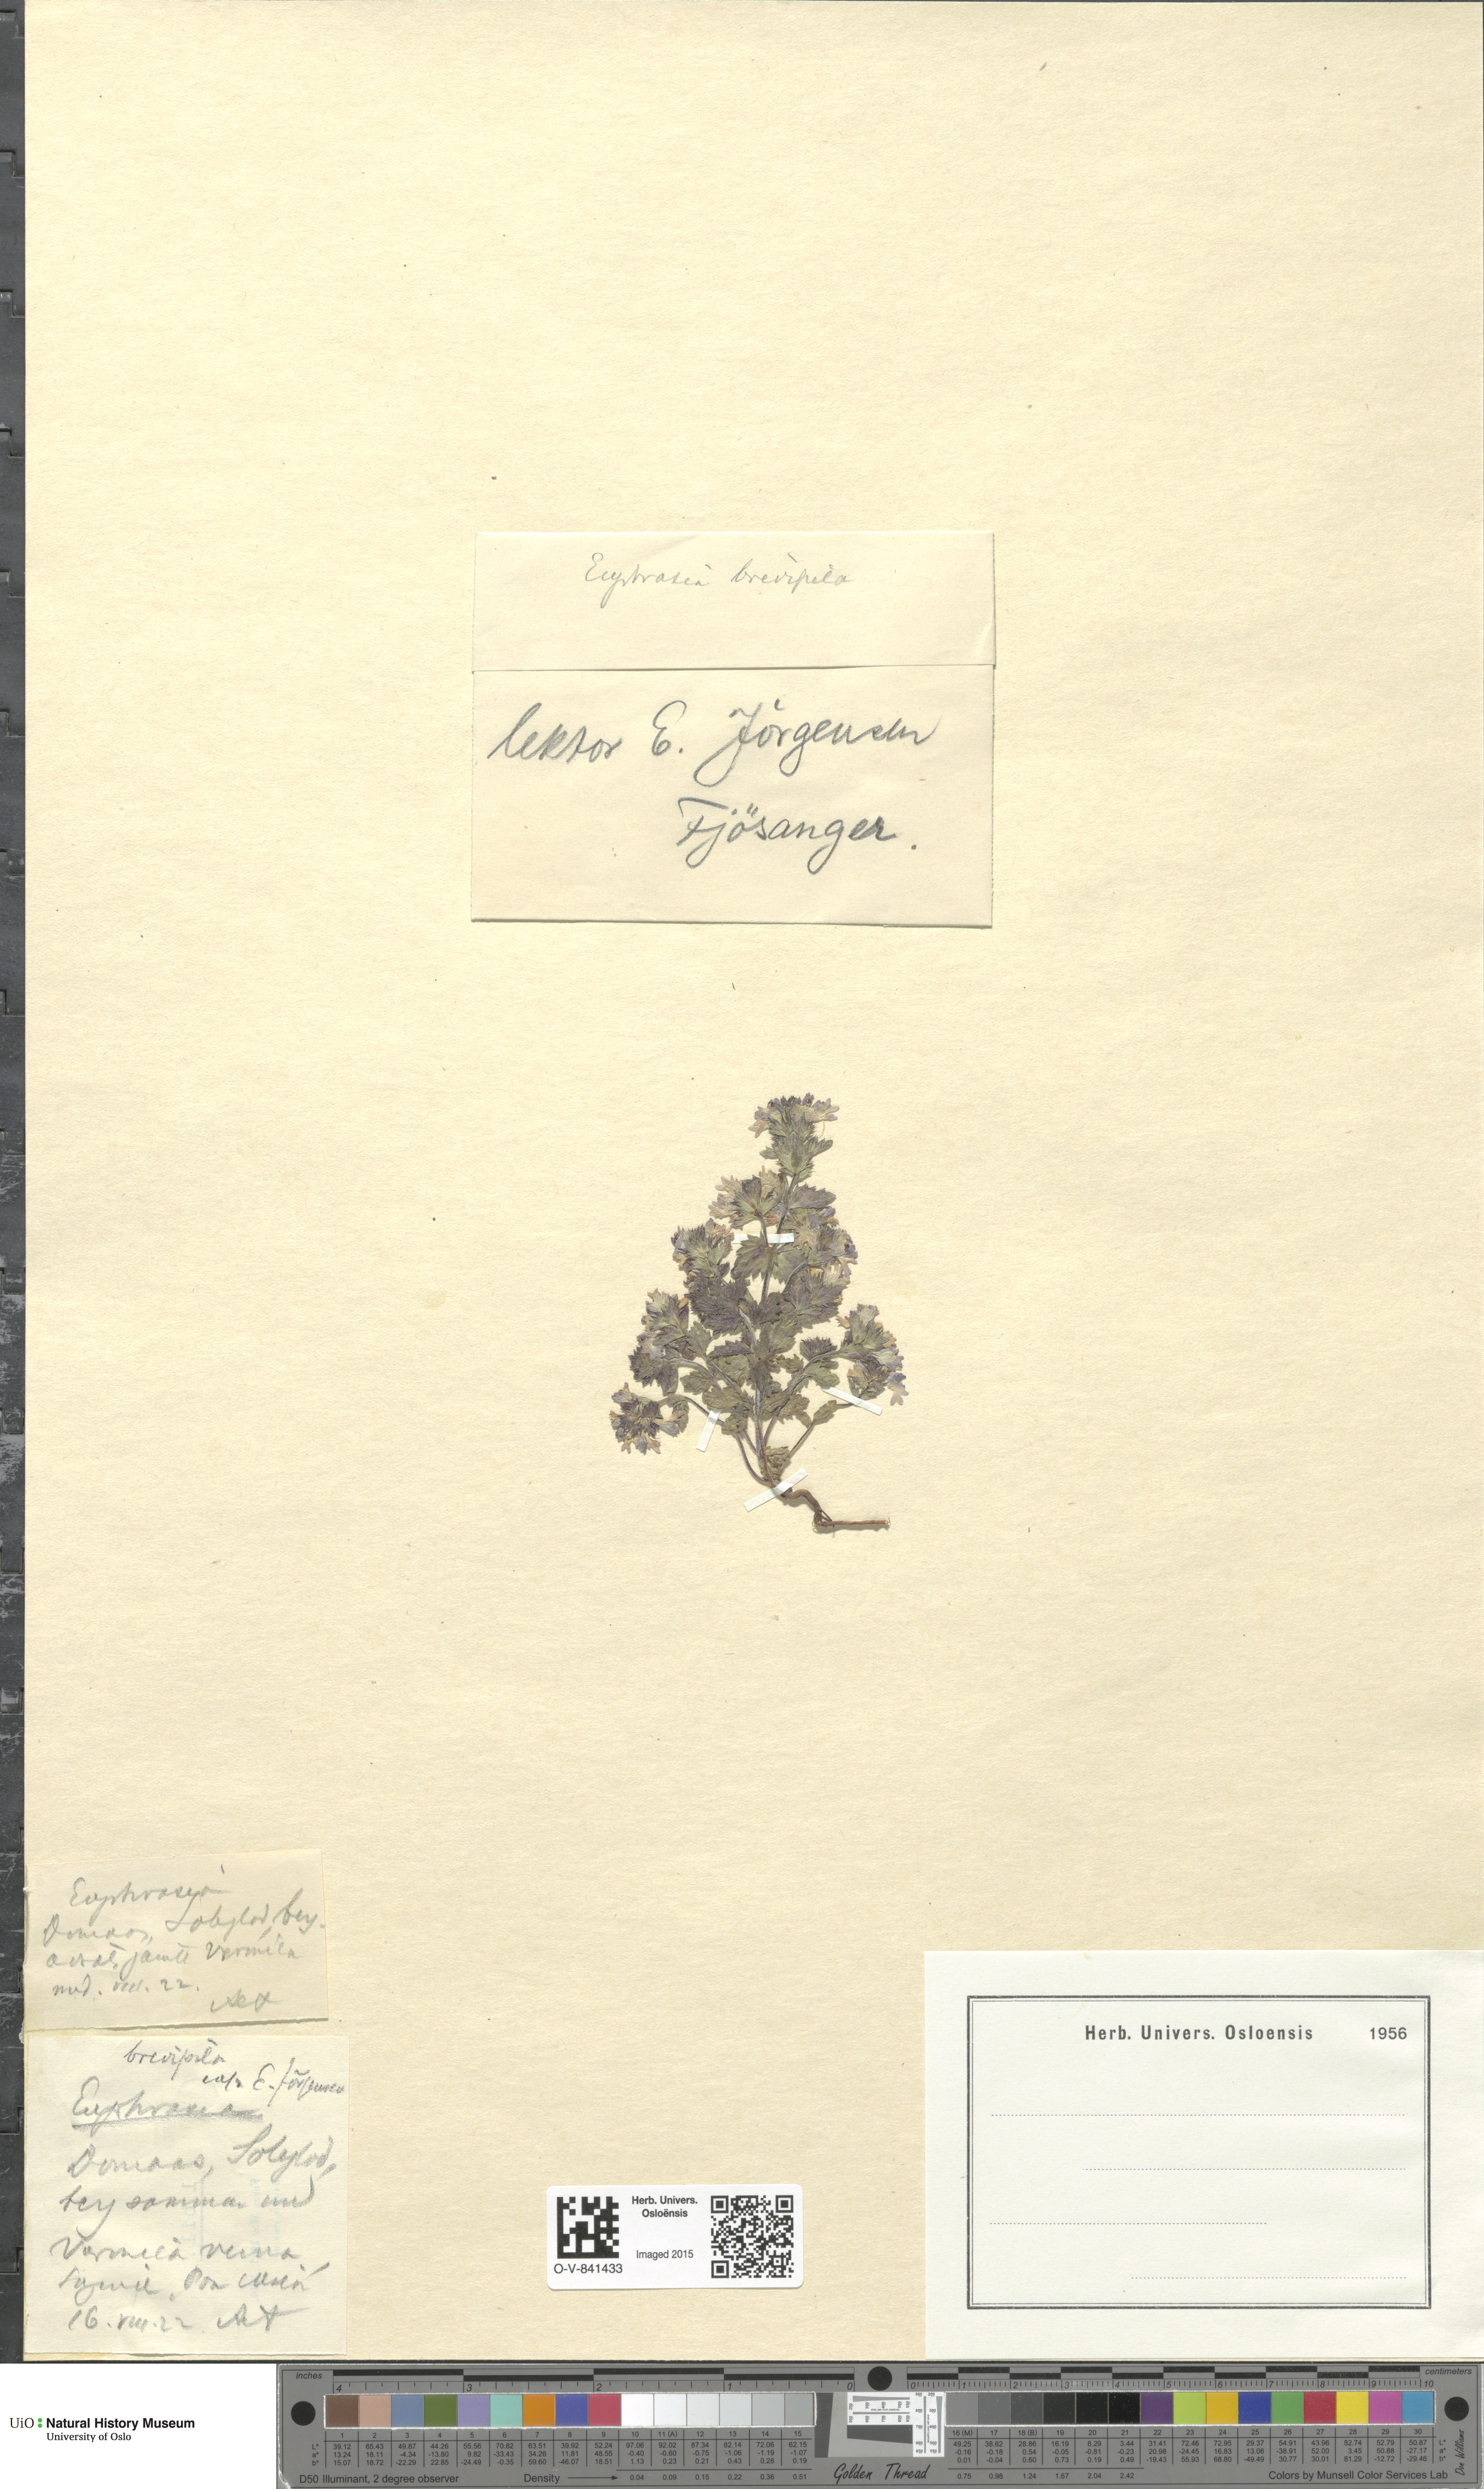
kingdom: Plantae
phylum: Tracheophyta
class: Magnoliopsida
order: Lamiales
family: Orobanchaceae
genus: Euphrasia
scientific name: Euphrasia vernalis
